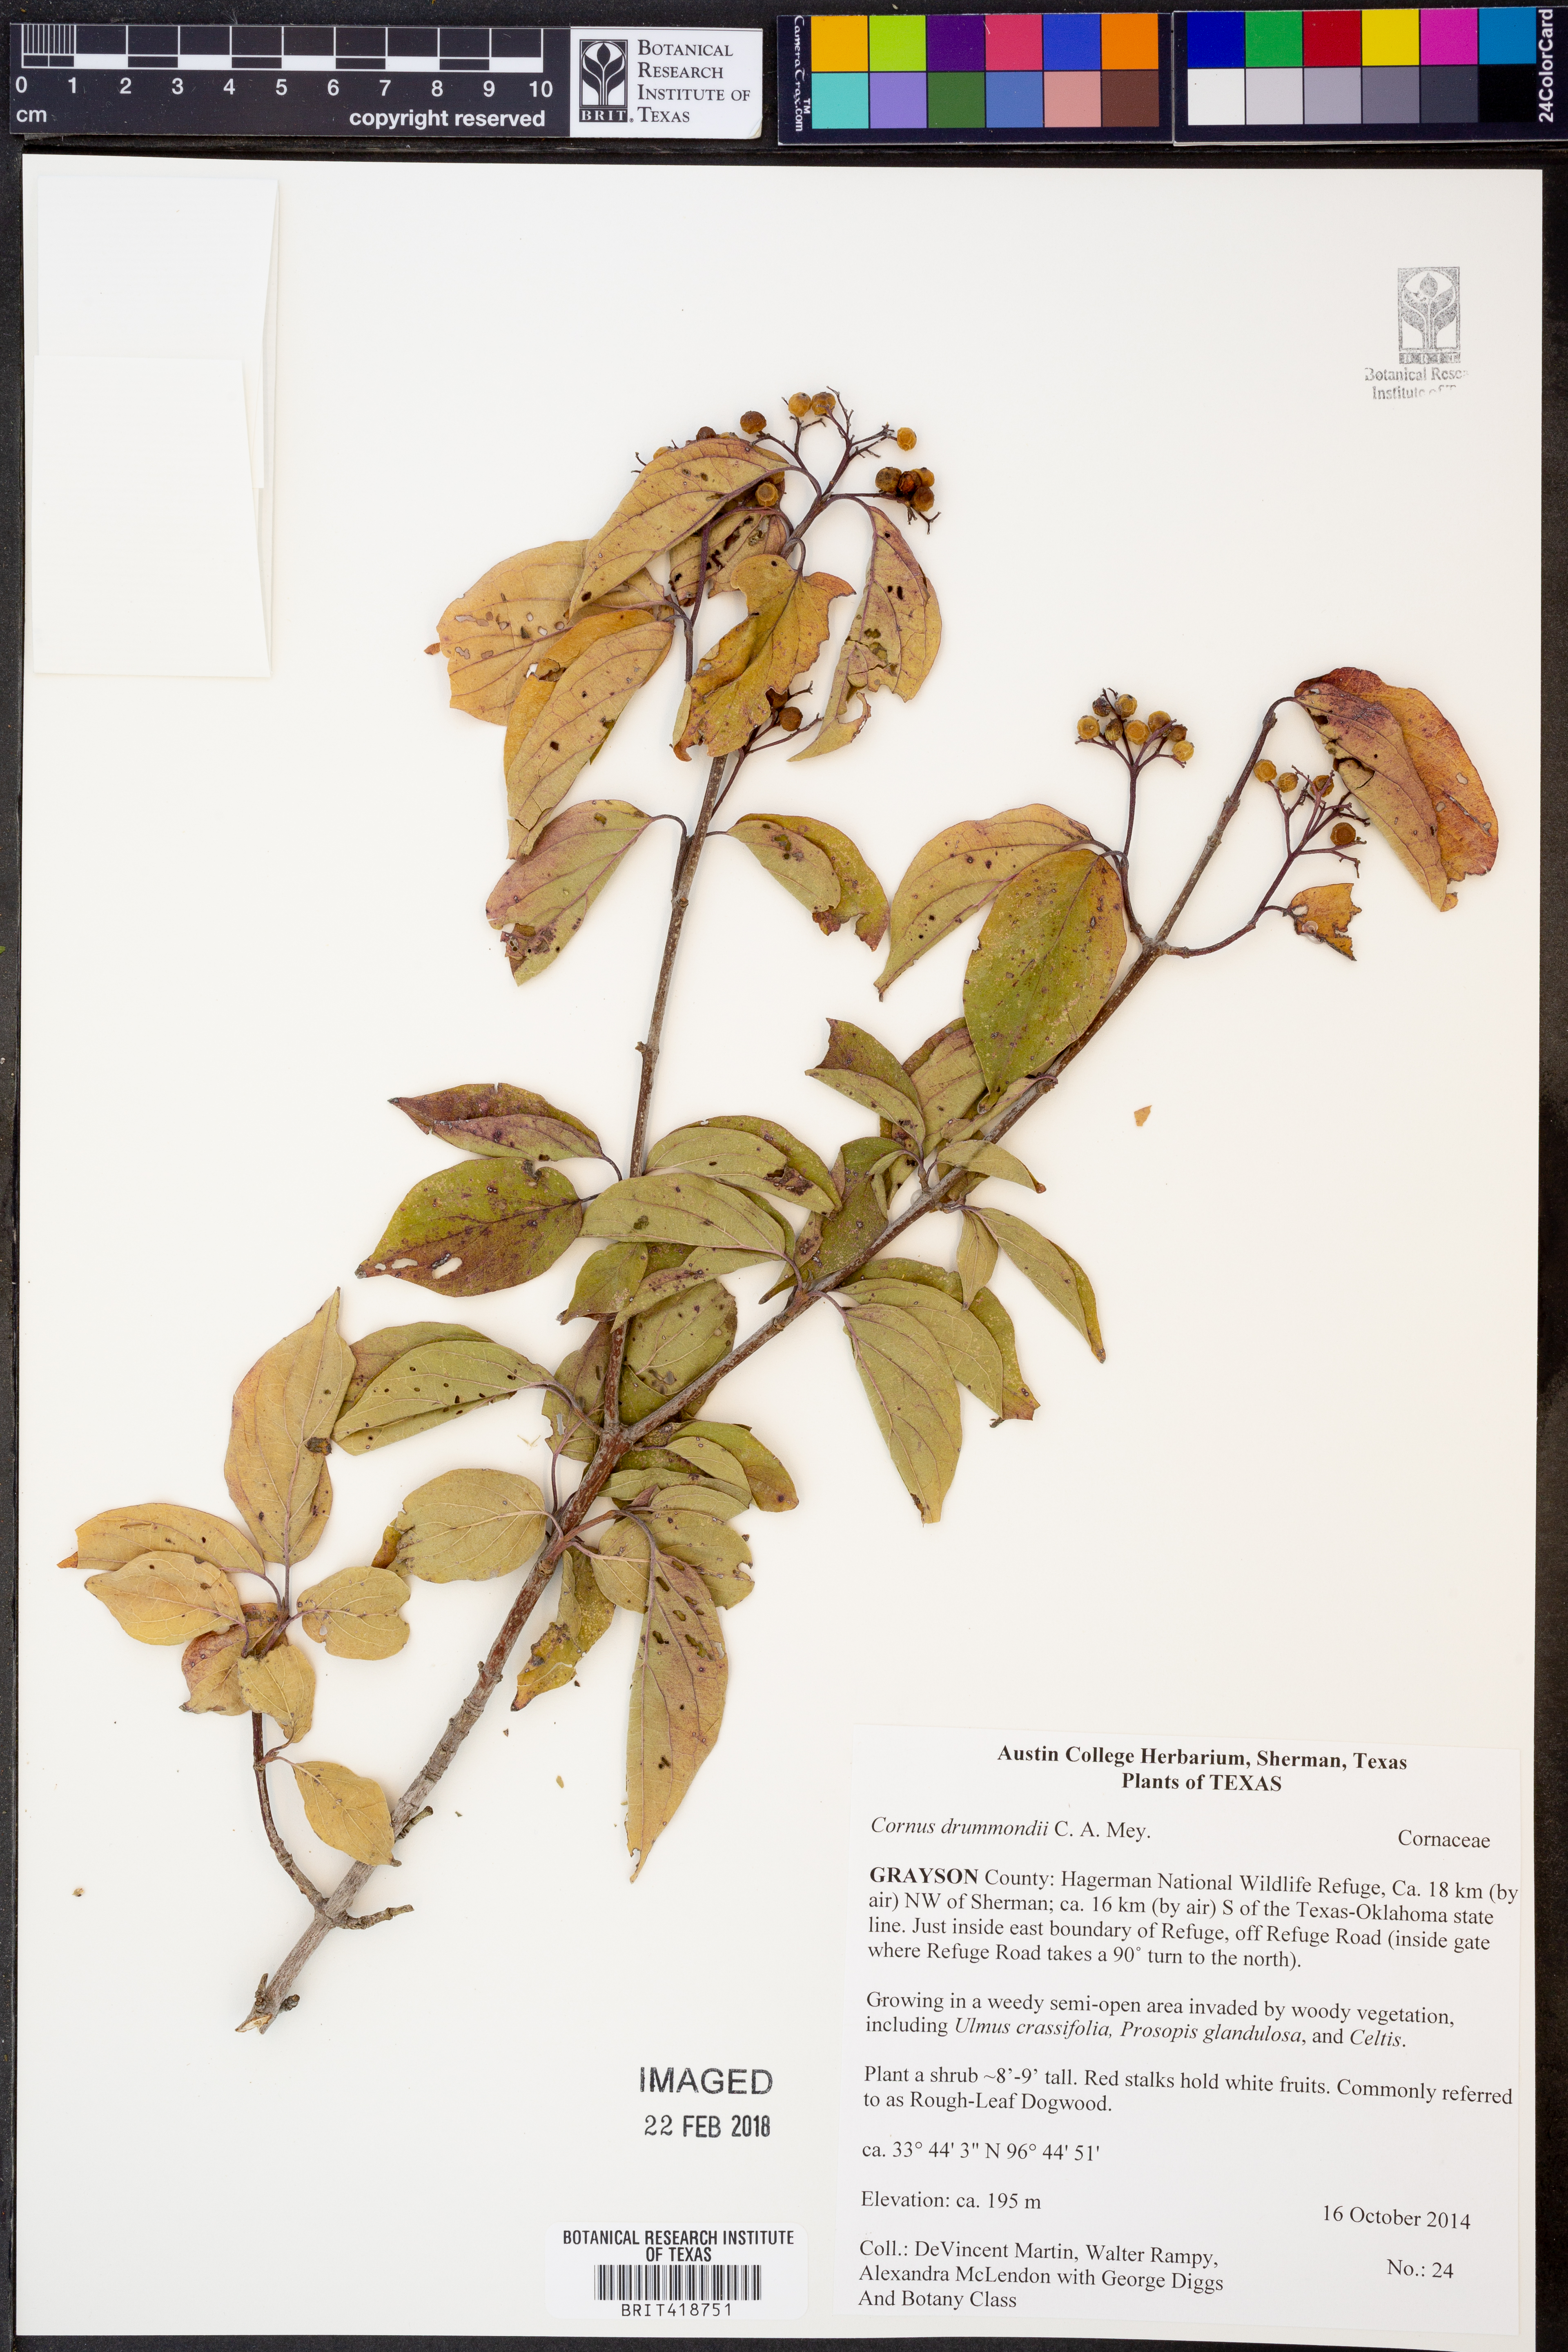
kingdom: Plantae
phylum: Tracheophyta
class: Magnoliopsida
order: Cornales
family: Cornaceae
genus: Cornus
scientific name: Cornus drummondii
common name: Rough-leaf dogwood
